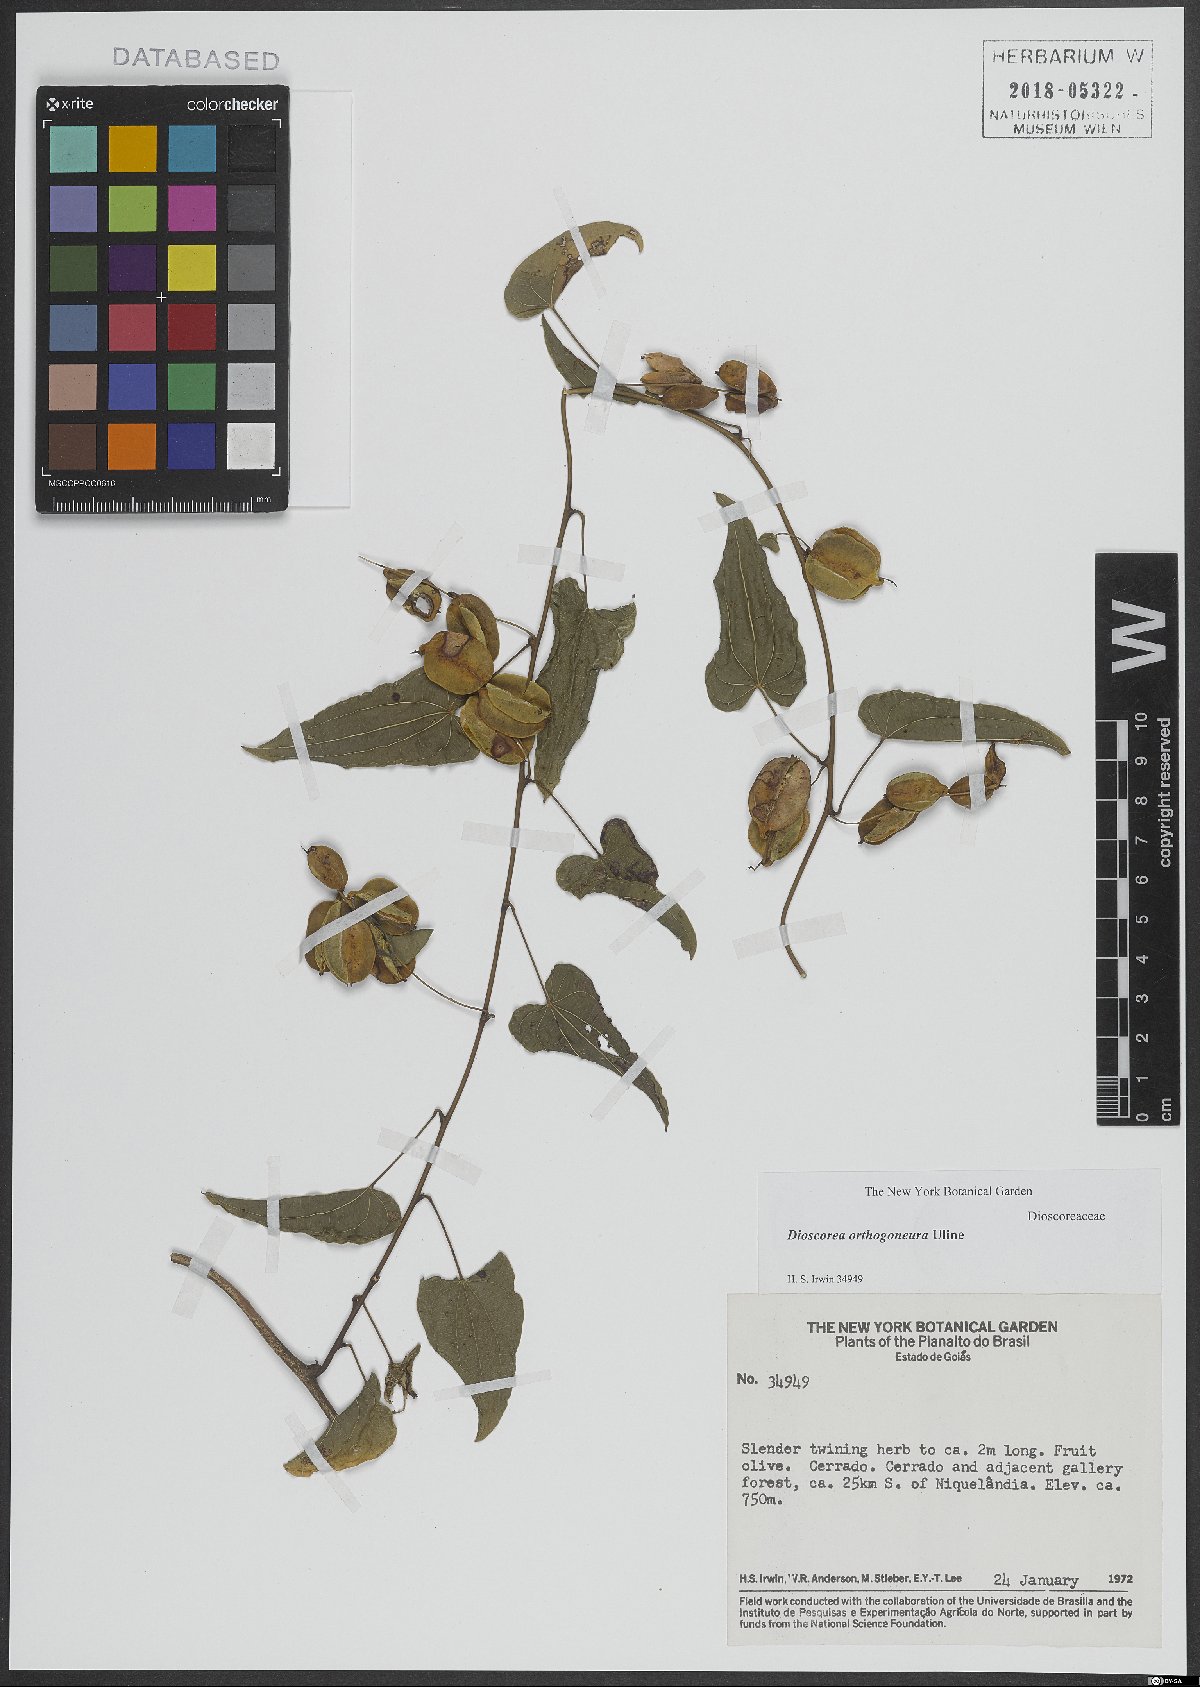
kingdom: Plantae
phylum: Tracheophyta
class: Liliopsida
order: Dioscoreales
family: Dioscoreaceae
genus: Dioscorea
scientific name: Dioscorea orthogoneura
